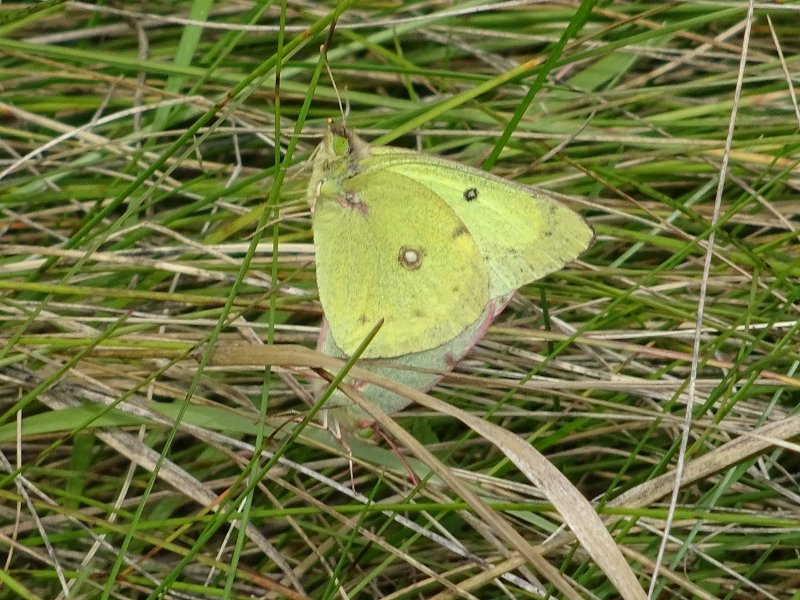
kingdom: Animalia
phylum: Arthropoda
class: Insecta
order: Lepidoptera
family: Pieridae
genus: Colias
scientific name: Colias philodice
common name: Clouded Sulphur
